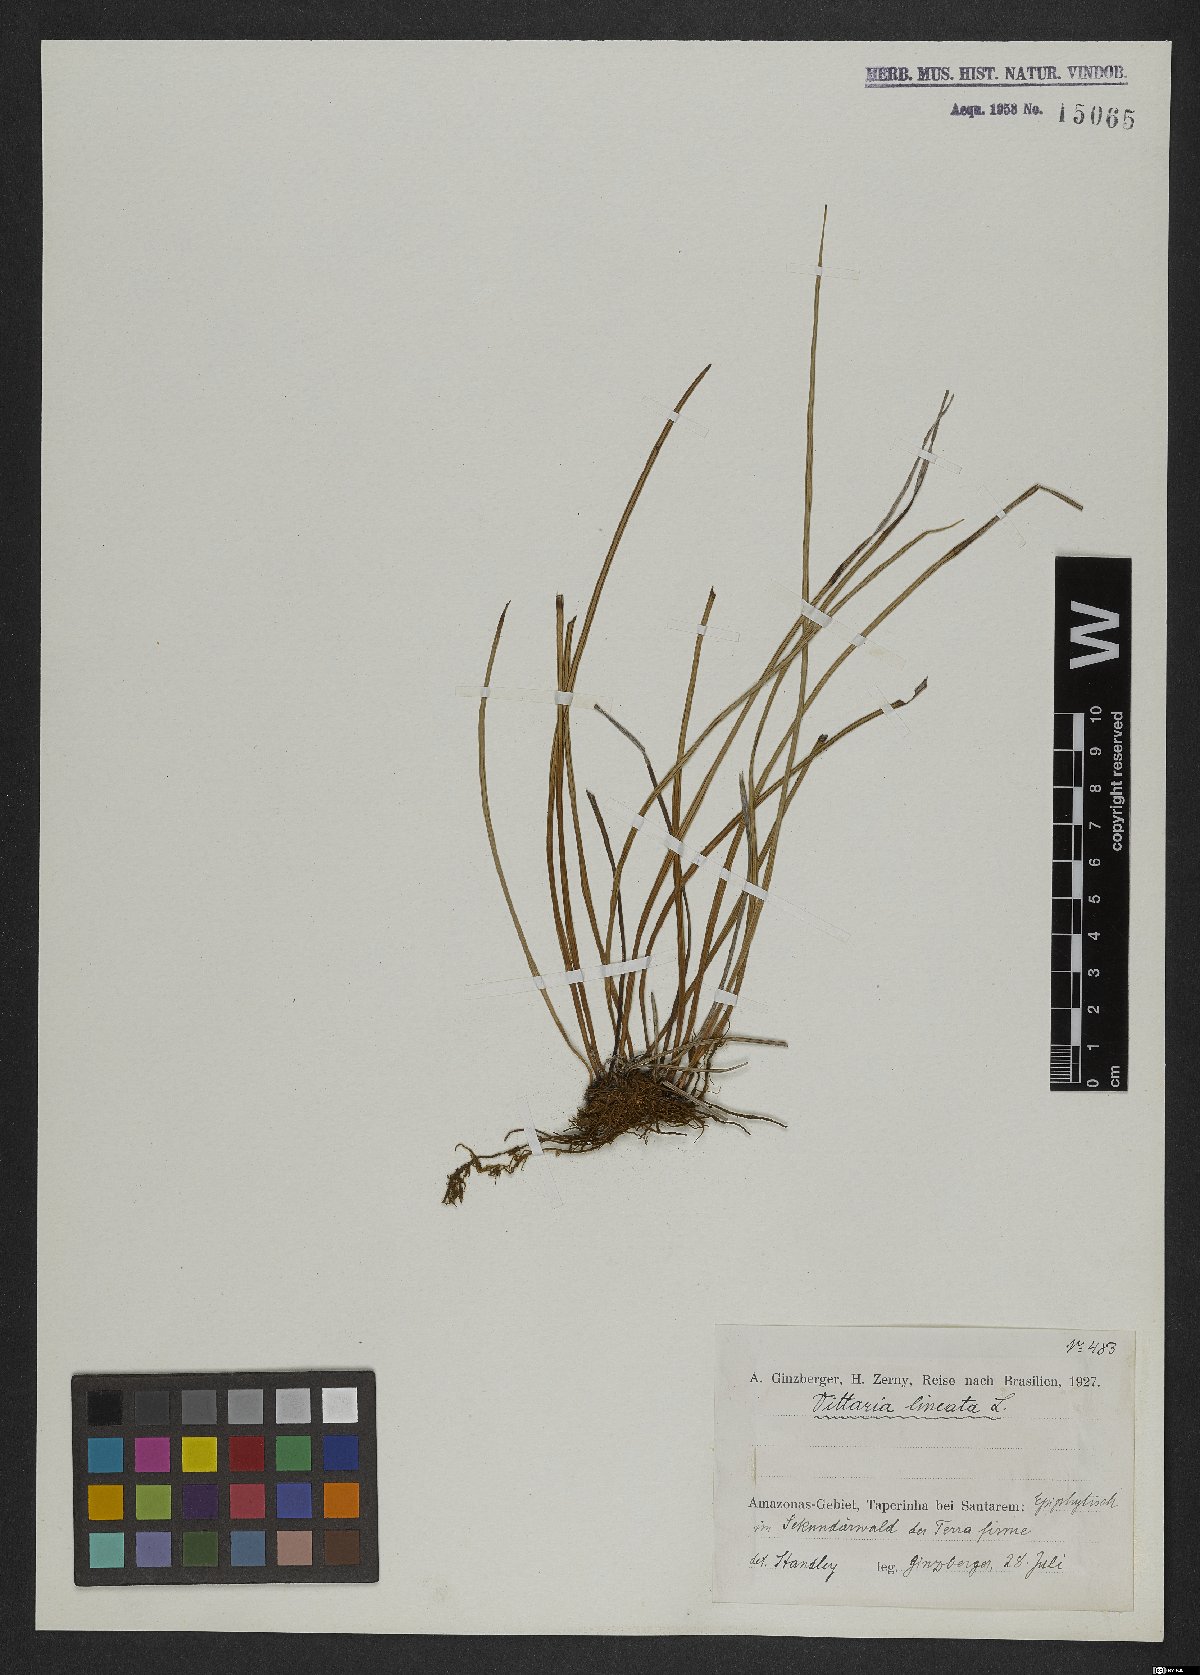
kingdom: Plantae
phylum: Tracheophyta
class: Polypodiopsida
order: Polypodiales
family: Pteridaceae
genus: Vittaria
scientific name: Vittaria lineata
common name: Shoestring fern
